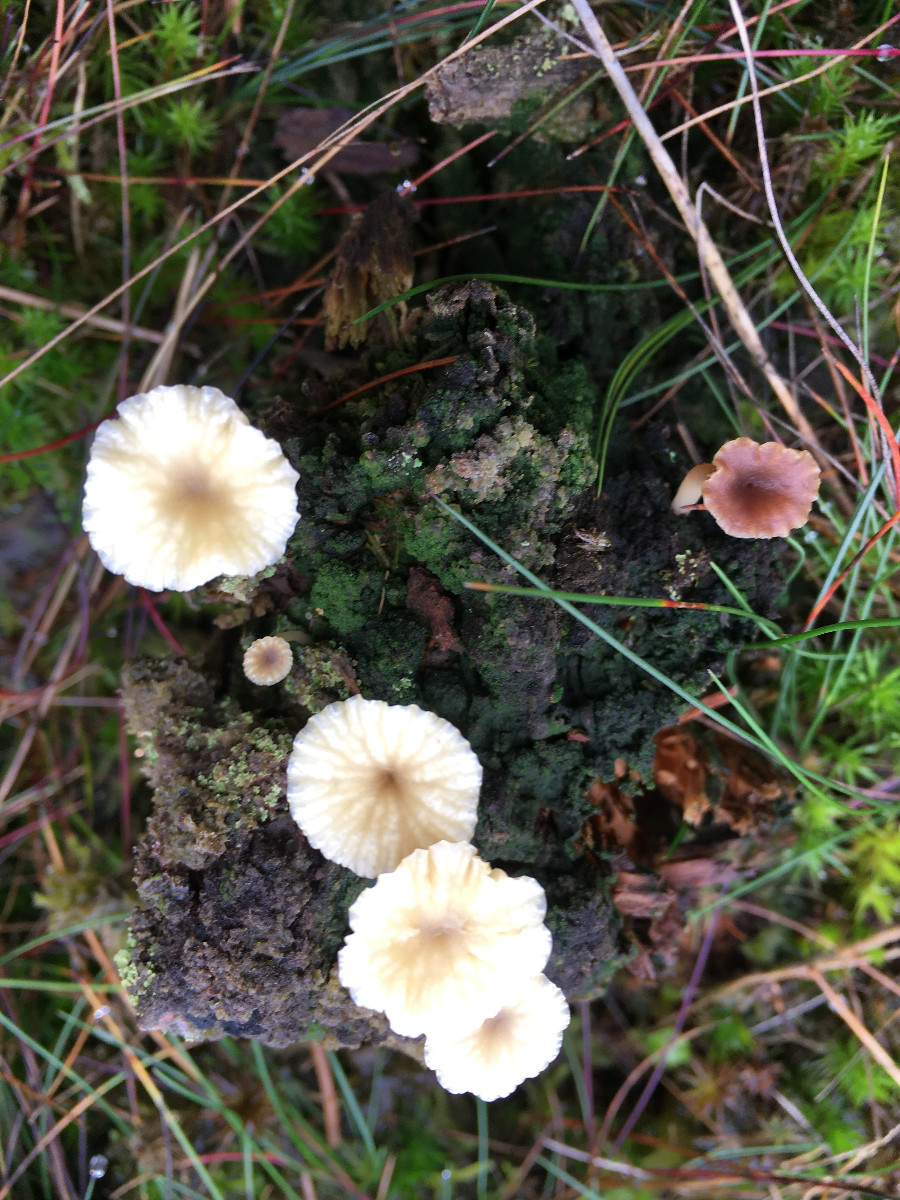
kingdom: Fungi
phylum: Basidiomycota
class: Agaricomycetes
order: Agaricales
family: Hygrophoraceae
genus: Lichenomphalia
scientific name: Lichenomphalia umbellifera
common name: tørve-lavhat
